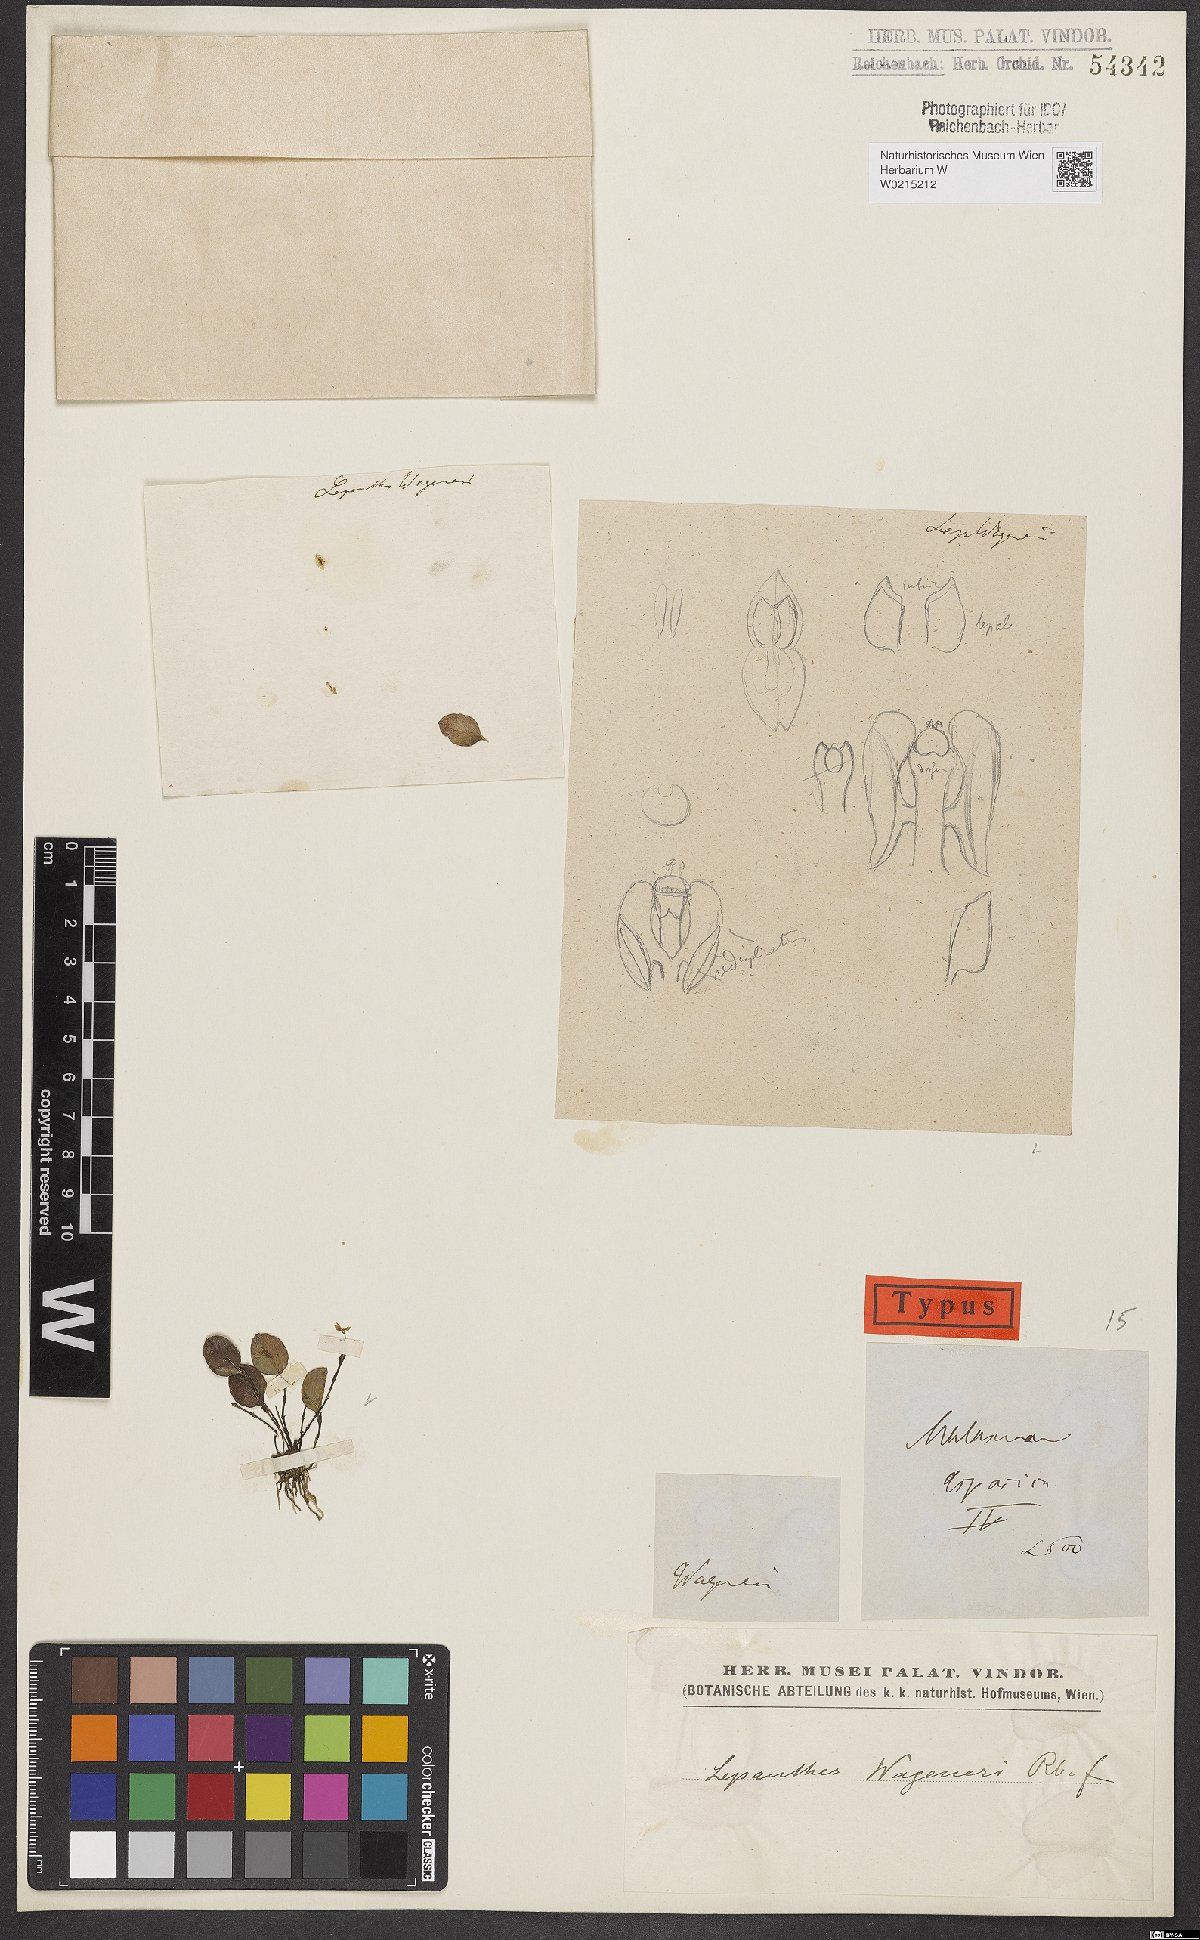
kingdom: Plantae
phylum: Tracheophyta
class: Liliopsida
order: Asparagales
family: Orchidaceae
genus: Lepanthes
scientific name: Lepanthes
